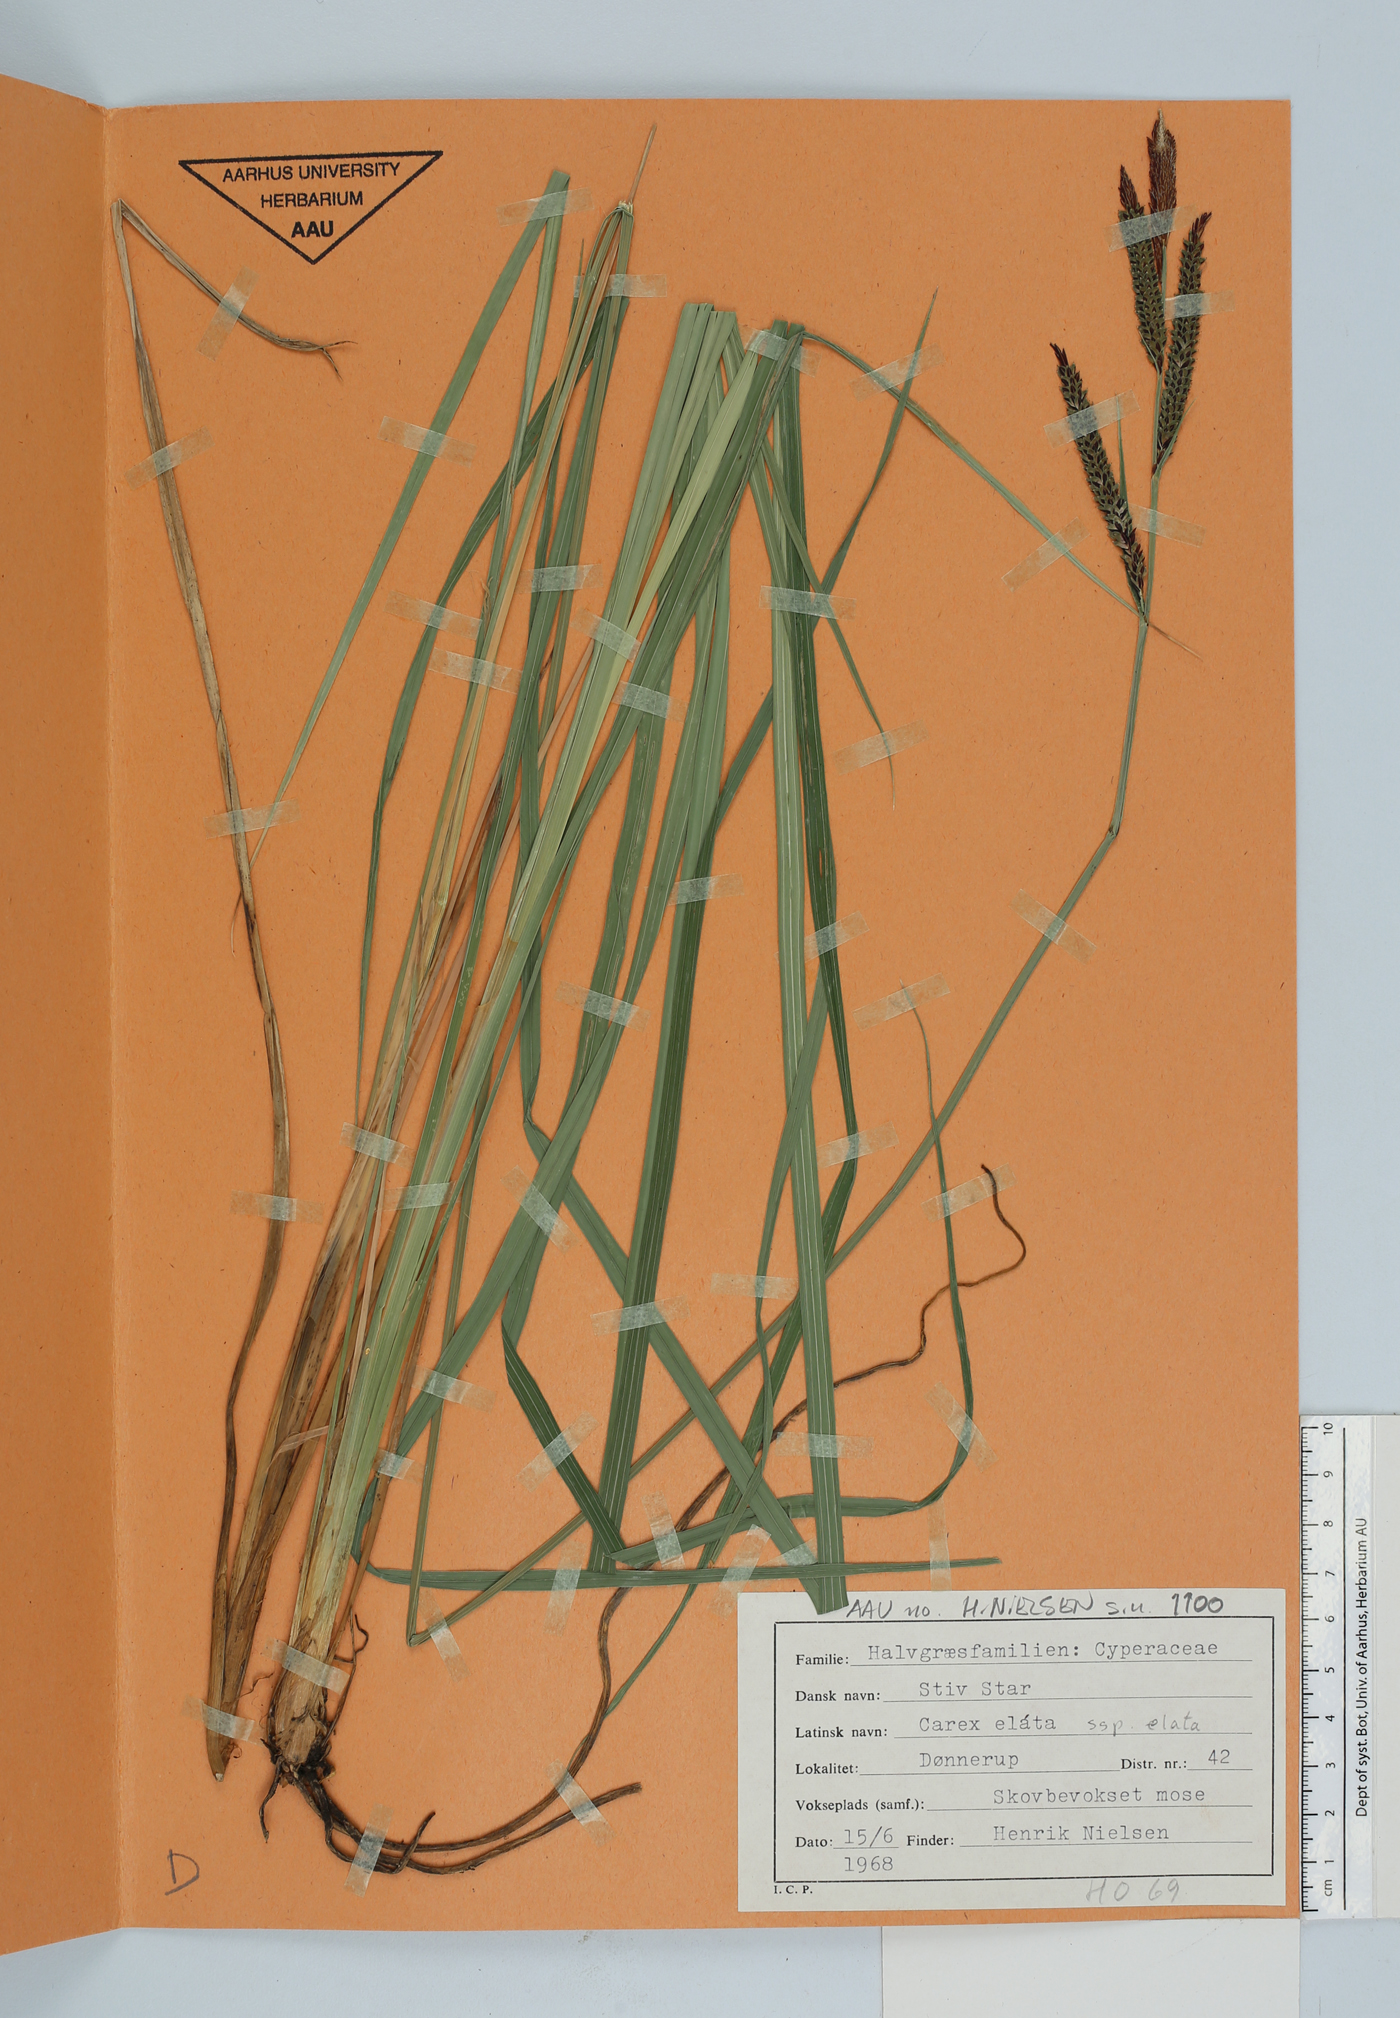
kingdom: Plantae
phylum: Tracheophyta
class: Liliopsida
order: Poales
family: Cyperaceae
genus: Carex
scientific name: Carex elata
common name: Tufted sedge
